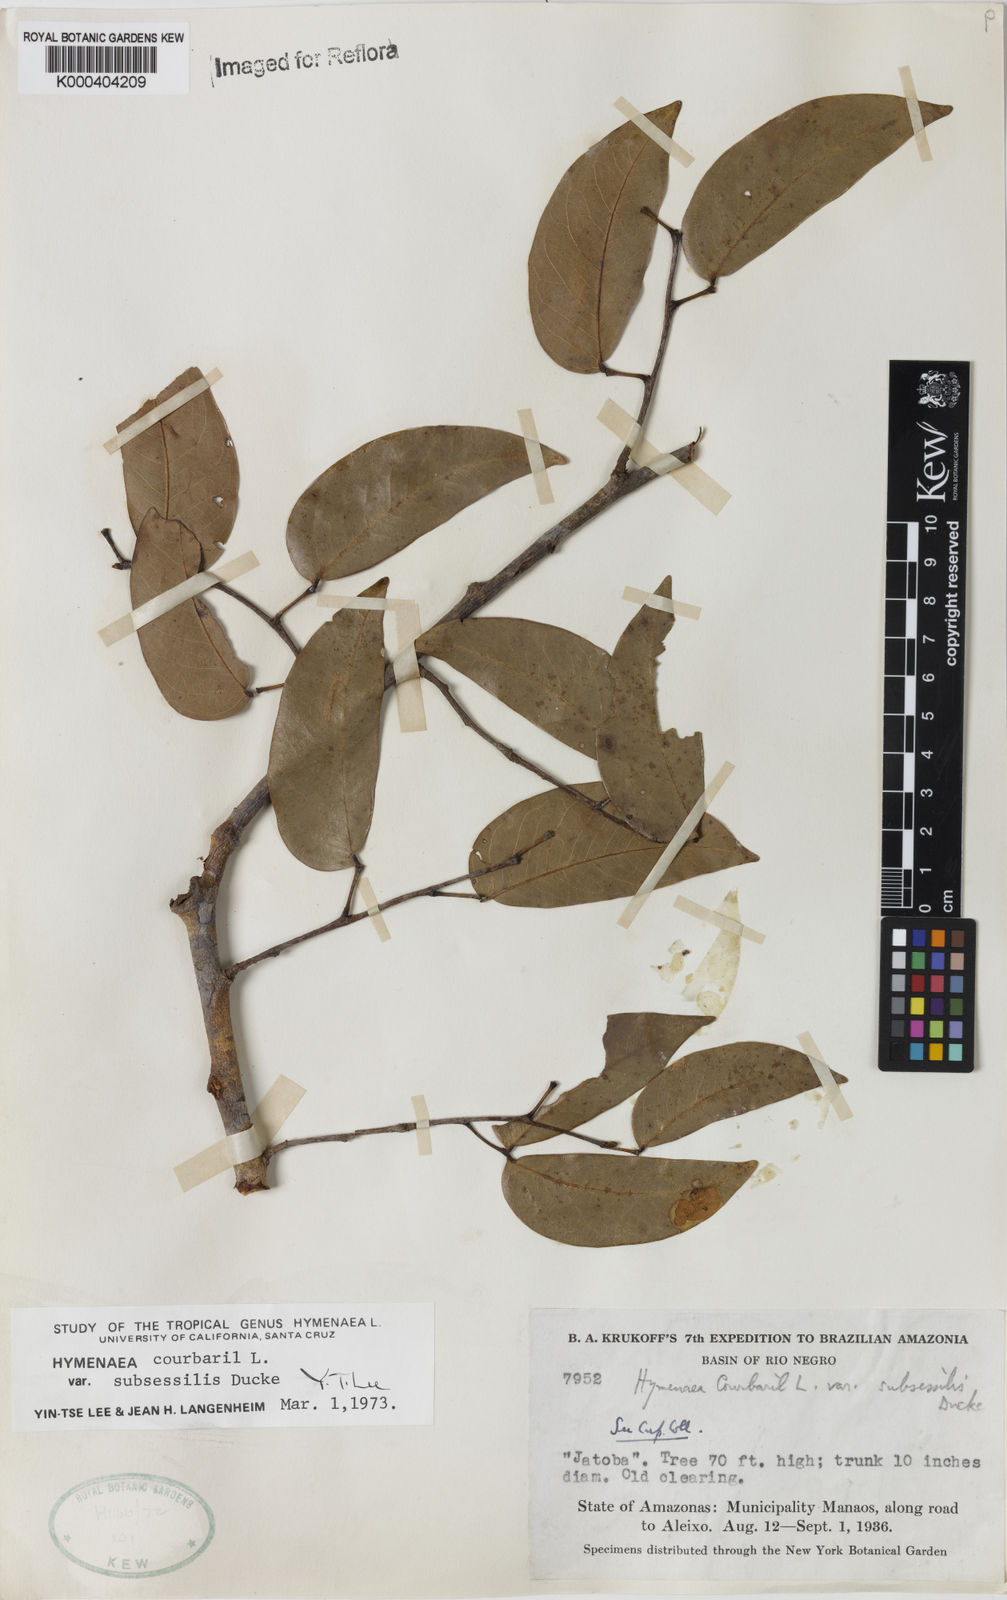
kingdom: Plantae
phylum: Tracheophyta
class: Magnoliopsida
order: Fabales
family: Fabaceae
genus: Hymenaea
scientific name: Hymenaea courbaril
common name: Brazilian copal
